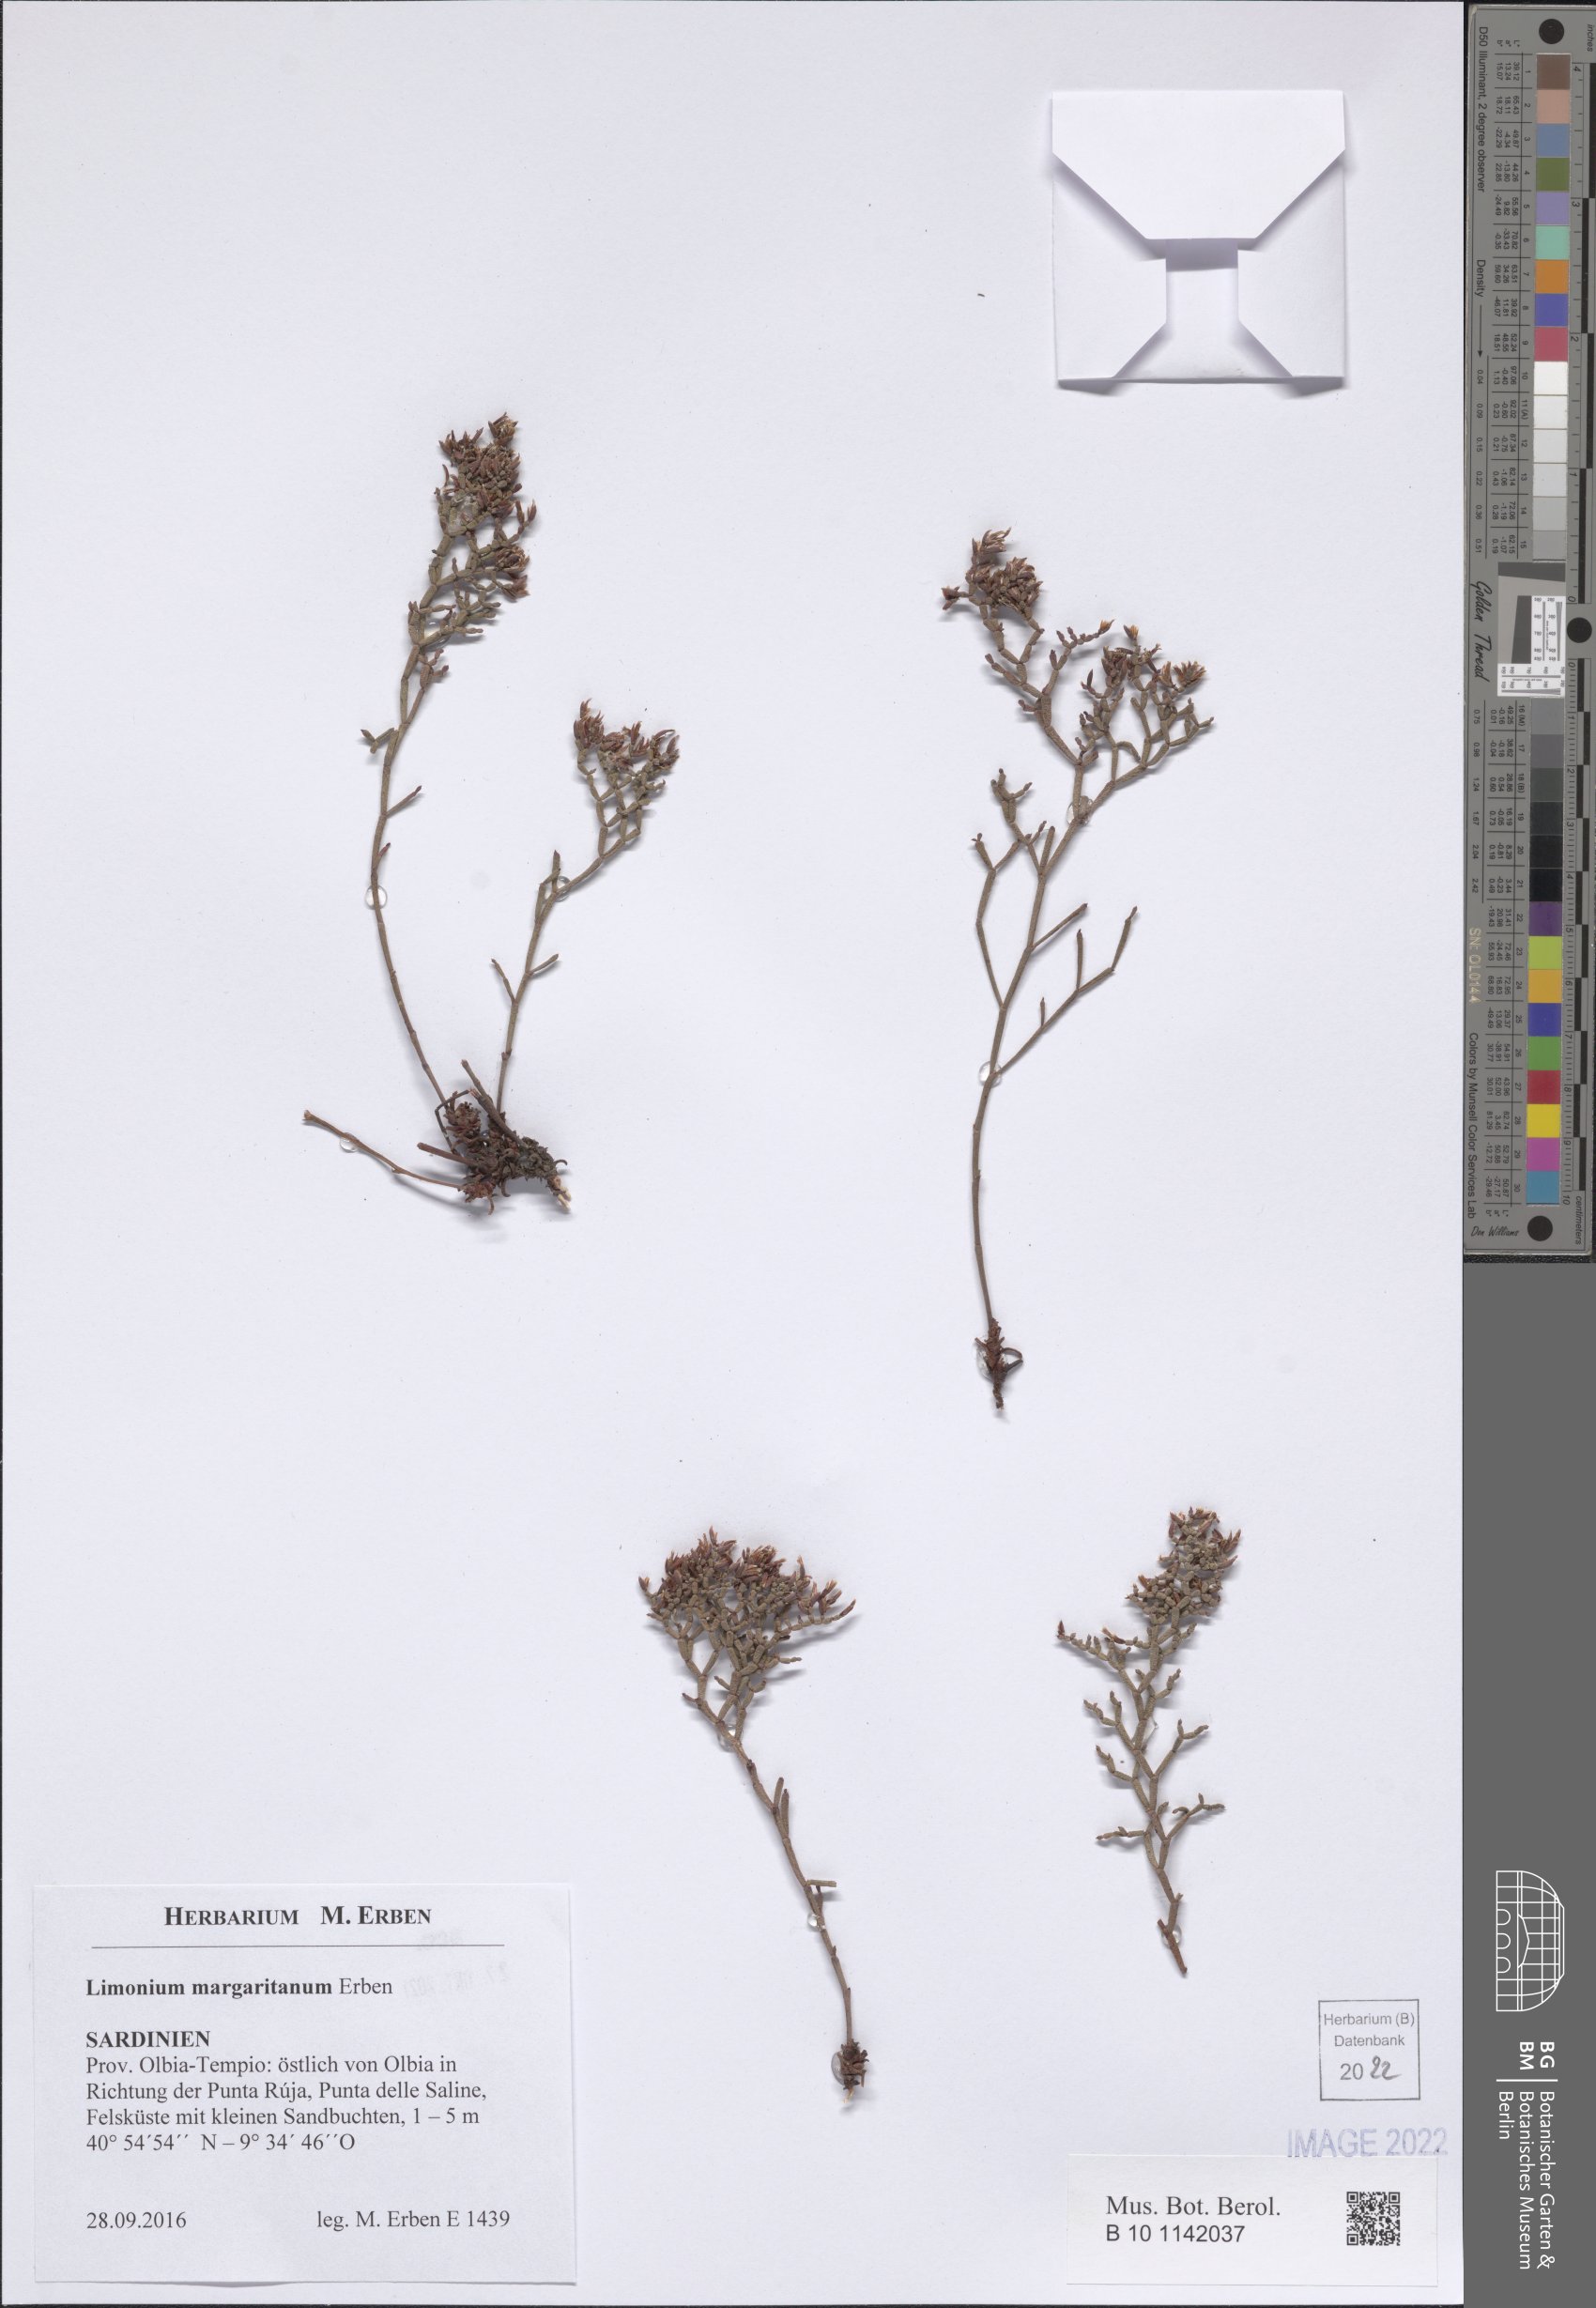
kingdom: Plantae
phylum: Tracheophyta
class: Magnoliopsida
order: Caryophyllales
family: Plumbaginaceae
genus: Limonium
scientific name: Limonium
